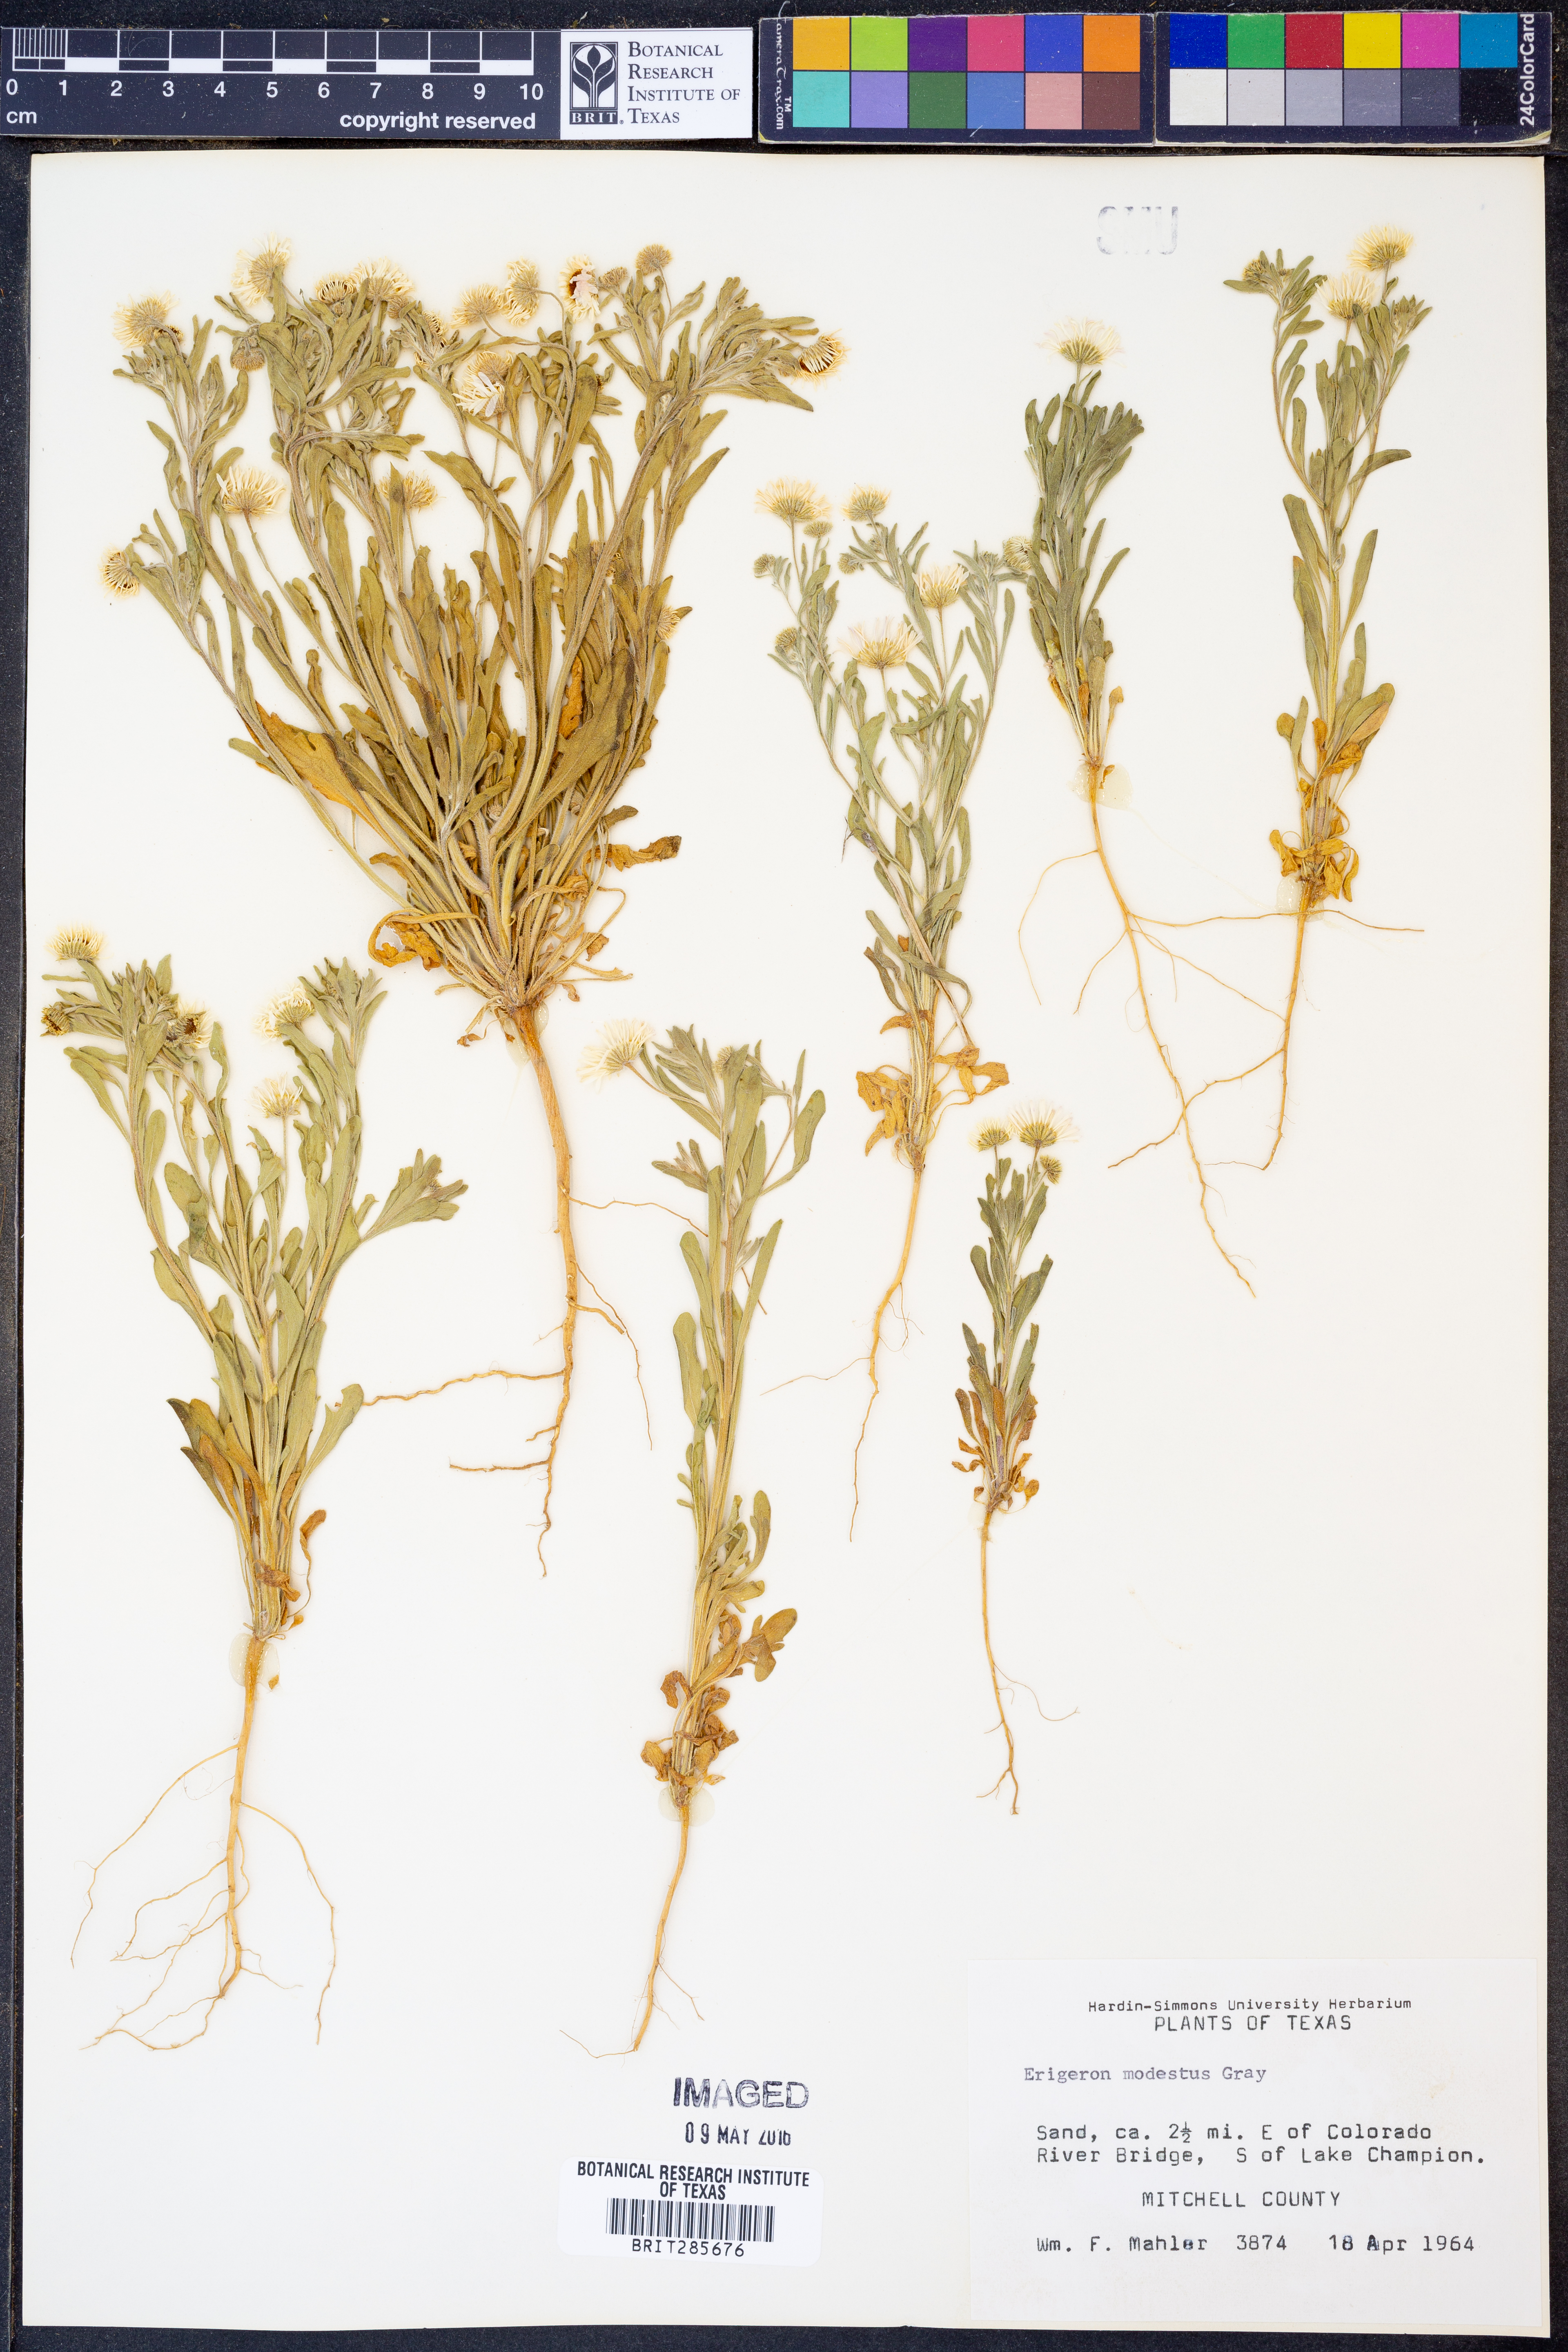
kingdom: Plantae
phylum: Tracheophyta
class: Magnoliopsida
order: Asterales
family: Asteraceae
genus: Erigeron
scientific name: Erigeron modestus
